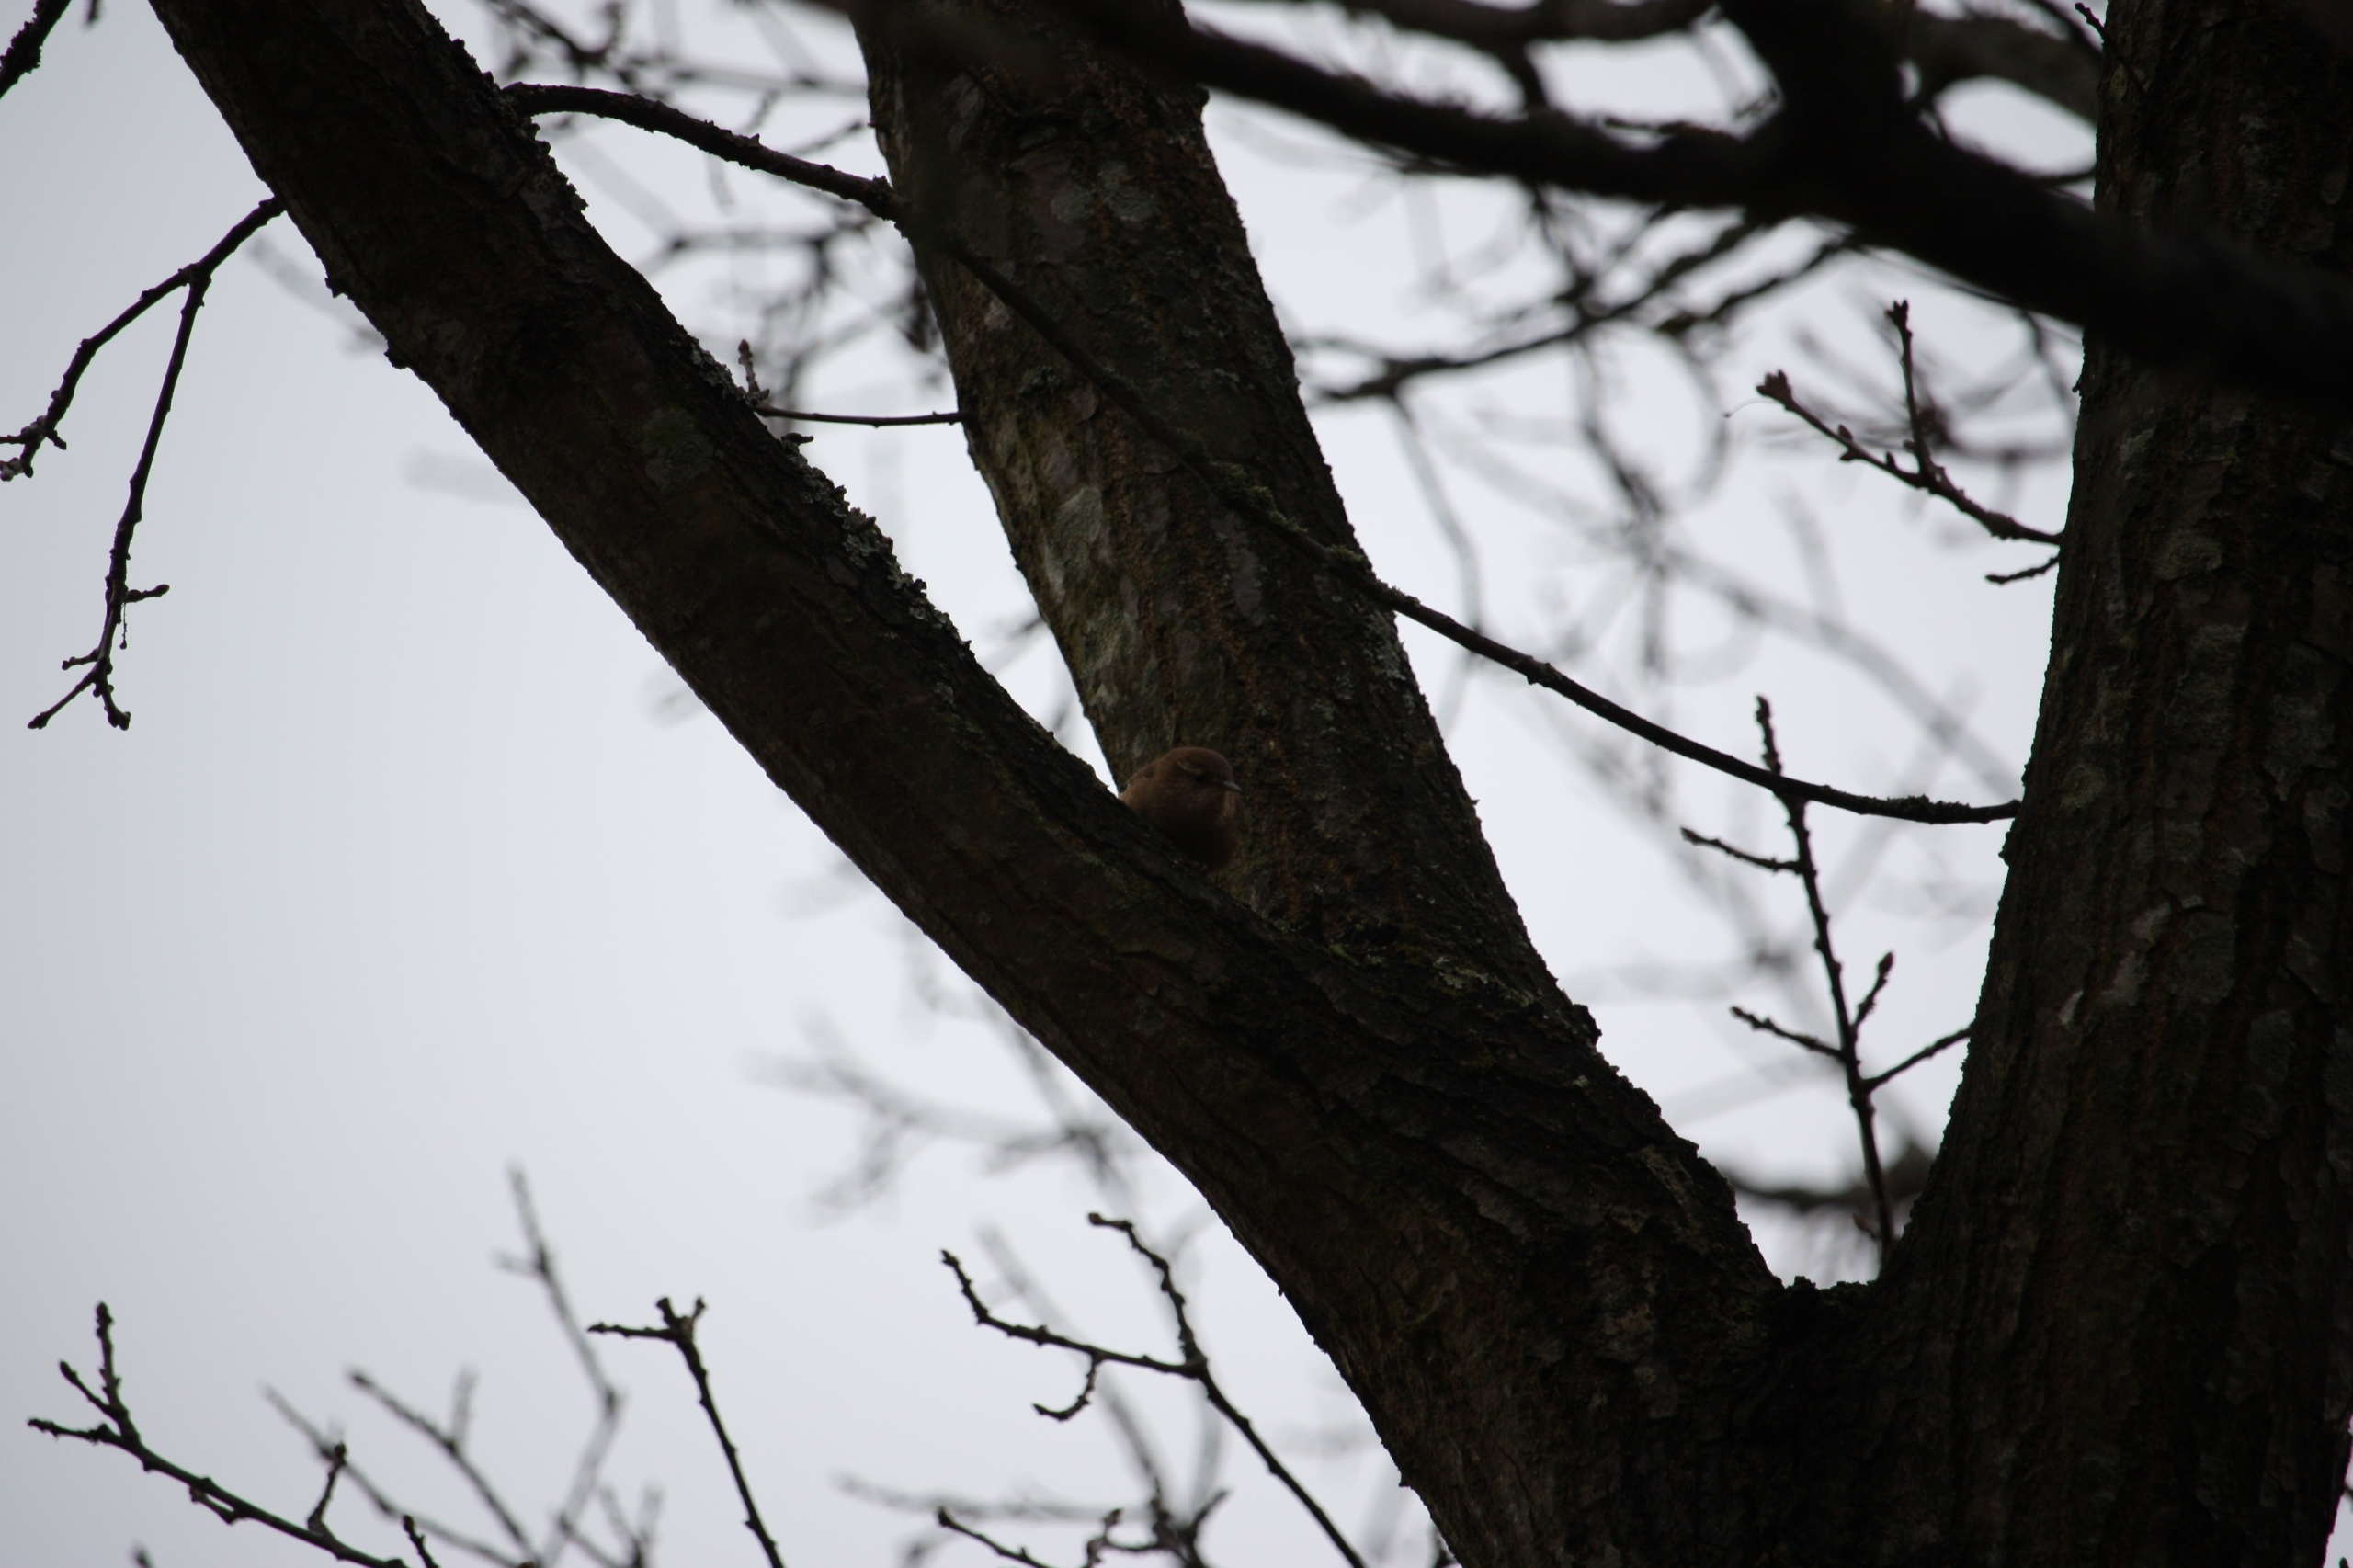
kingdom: Animalia
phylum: Chordata
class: Aves
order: Passeriformes
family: Troglodytidae
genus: Troglodytes
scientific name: Troglodytes troglodytes
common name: Gærdesmutte
